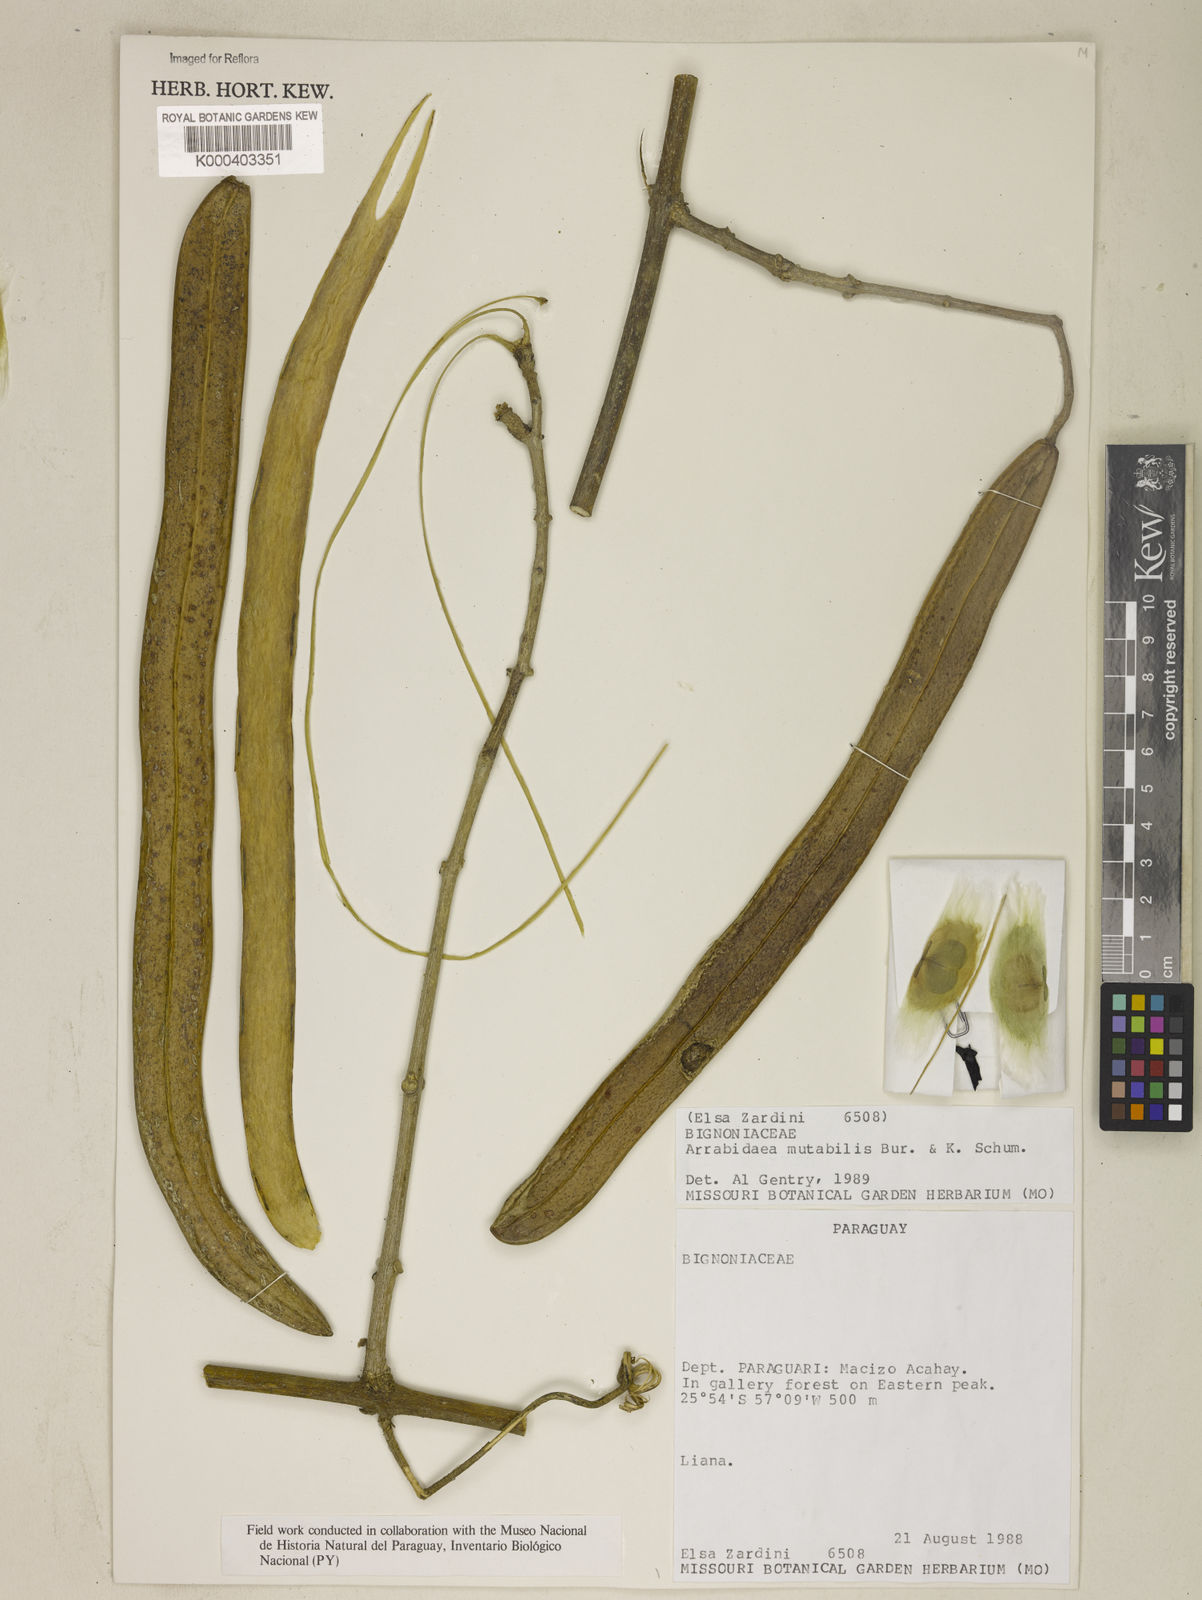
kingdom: Plantae
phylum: Tracheophyta
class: Magnoliopsida
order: Lamiales
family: Bignoniaceae
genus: Fridericia
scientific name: Fridericia mutabilis
